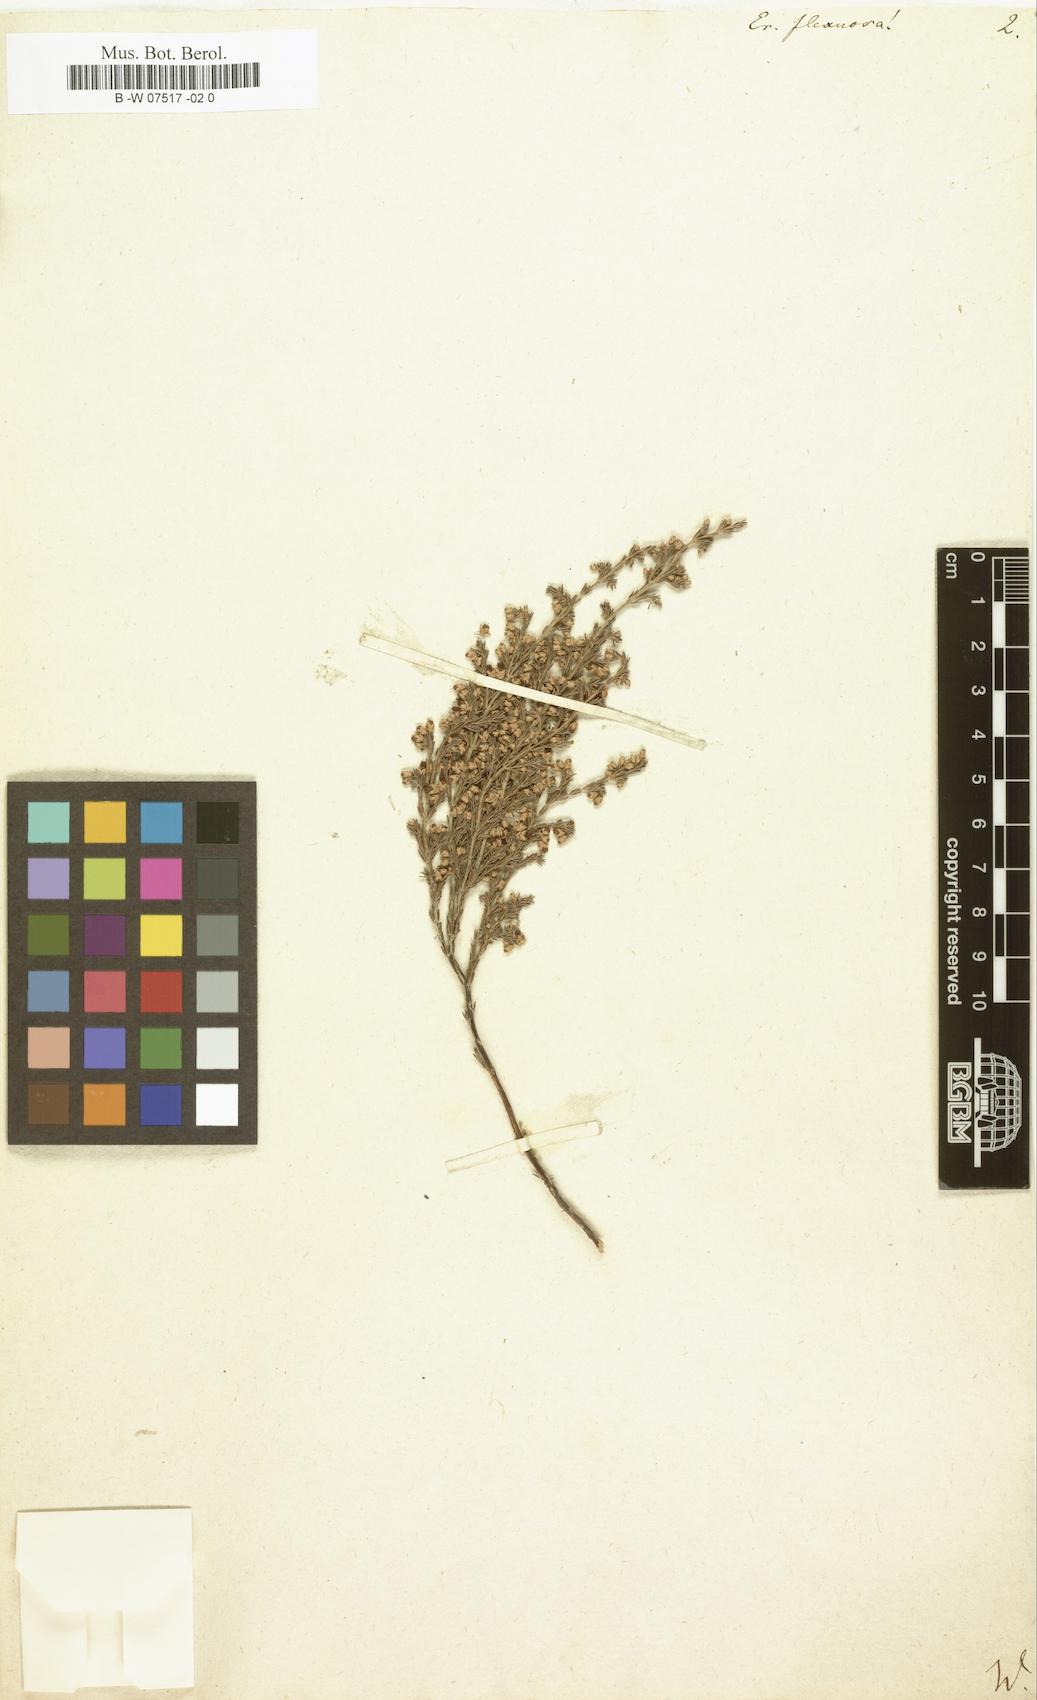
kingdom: Plantae
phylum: Tracheophyta
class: Magnoliopsida
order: Ericales
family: Ericaceae
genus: Erica
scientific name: Erica imbricata
